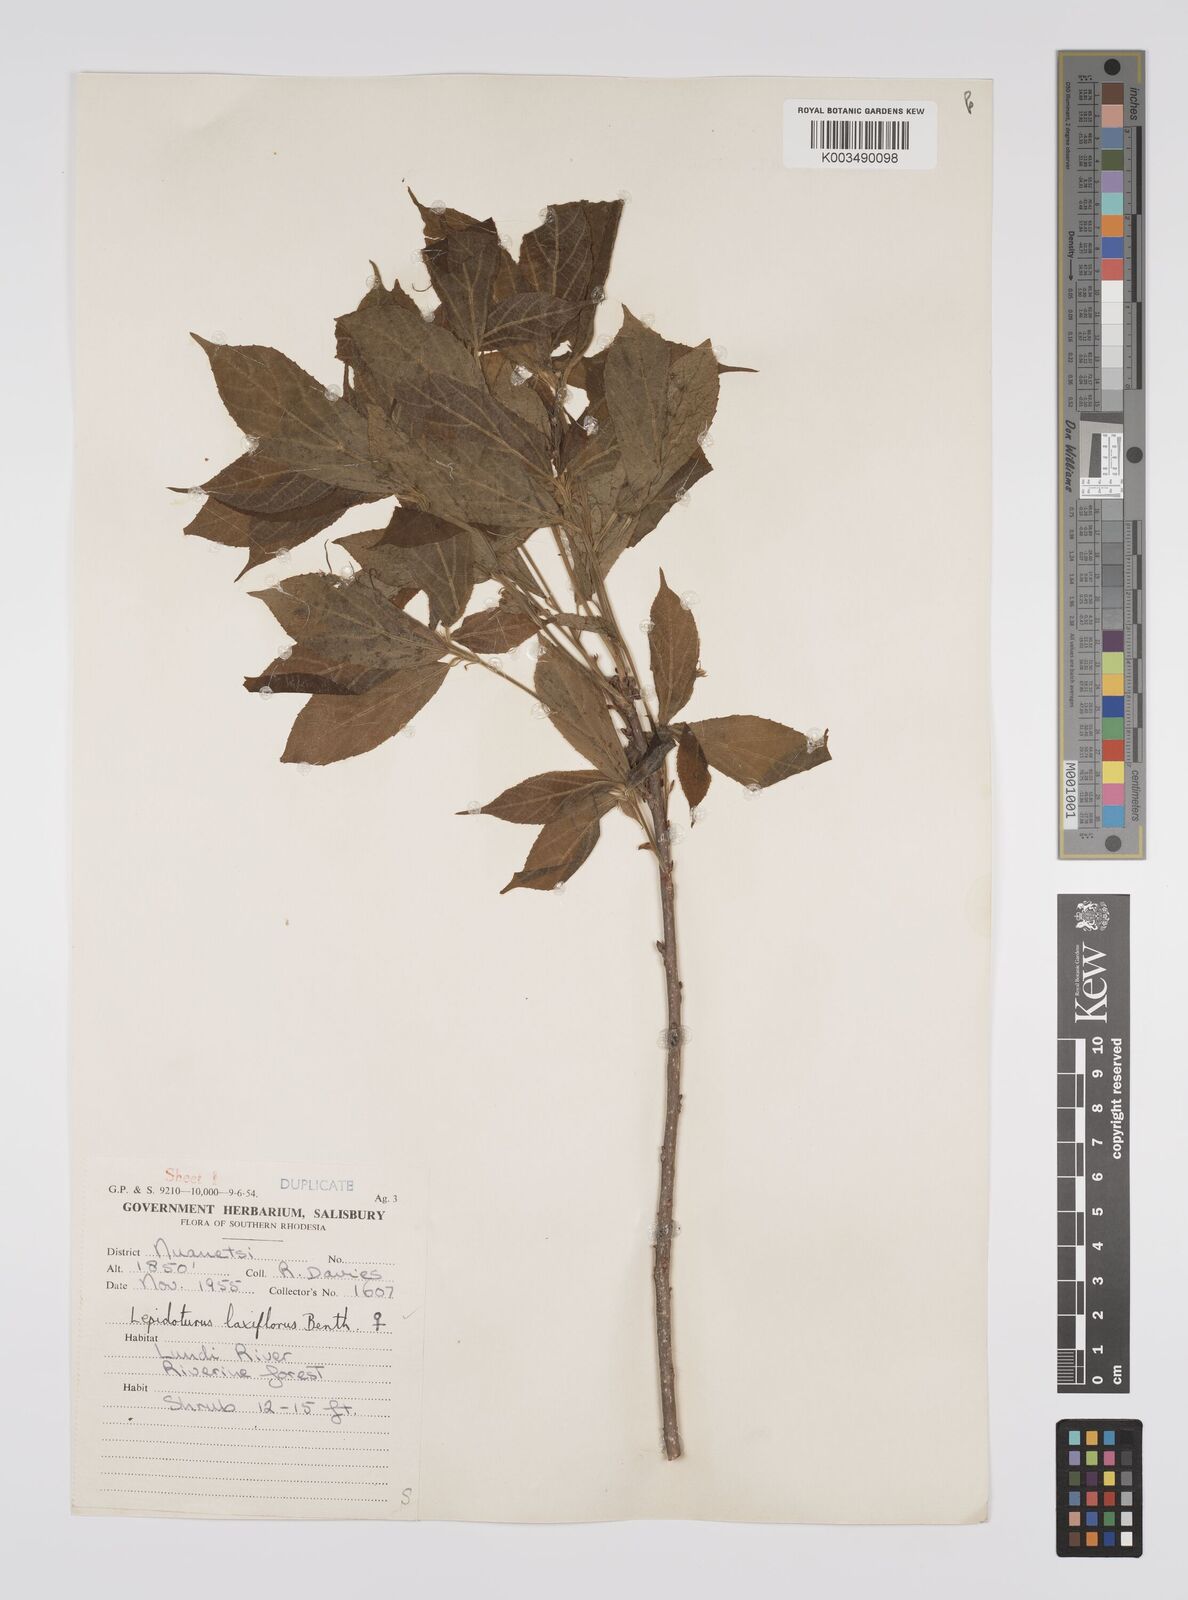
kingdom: Plantae
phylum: Tracheophyta
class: Magnoliopsida
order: Malpighiales
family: Euphorbiaceae
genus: Alchornea
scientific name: Alchornea laxiflora
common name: Lowveld bead-string
